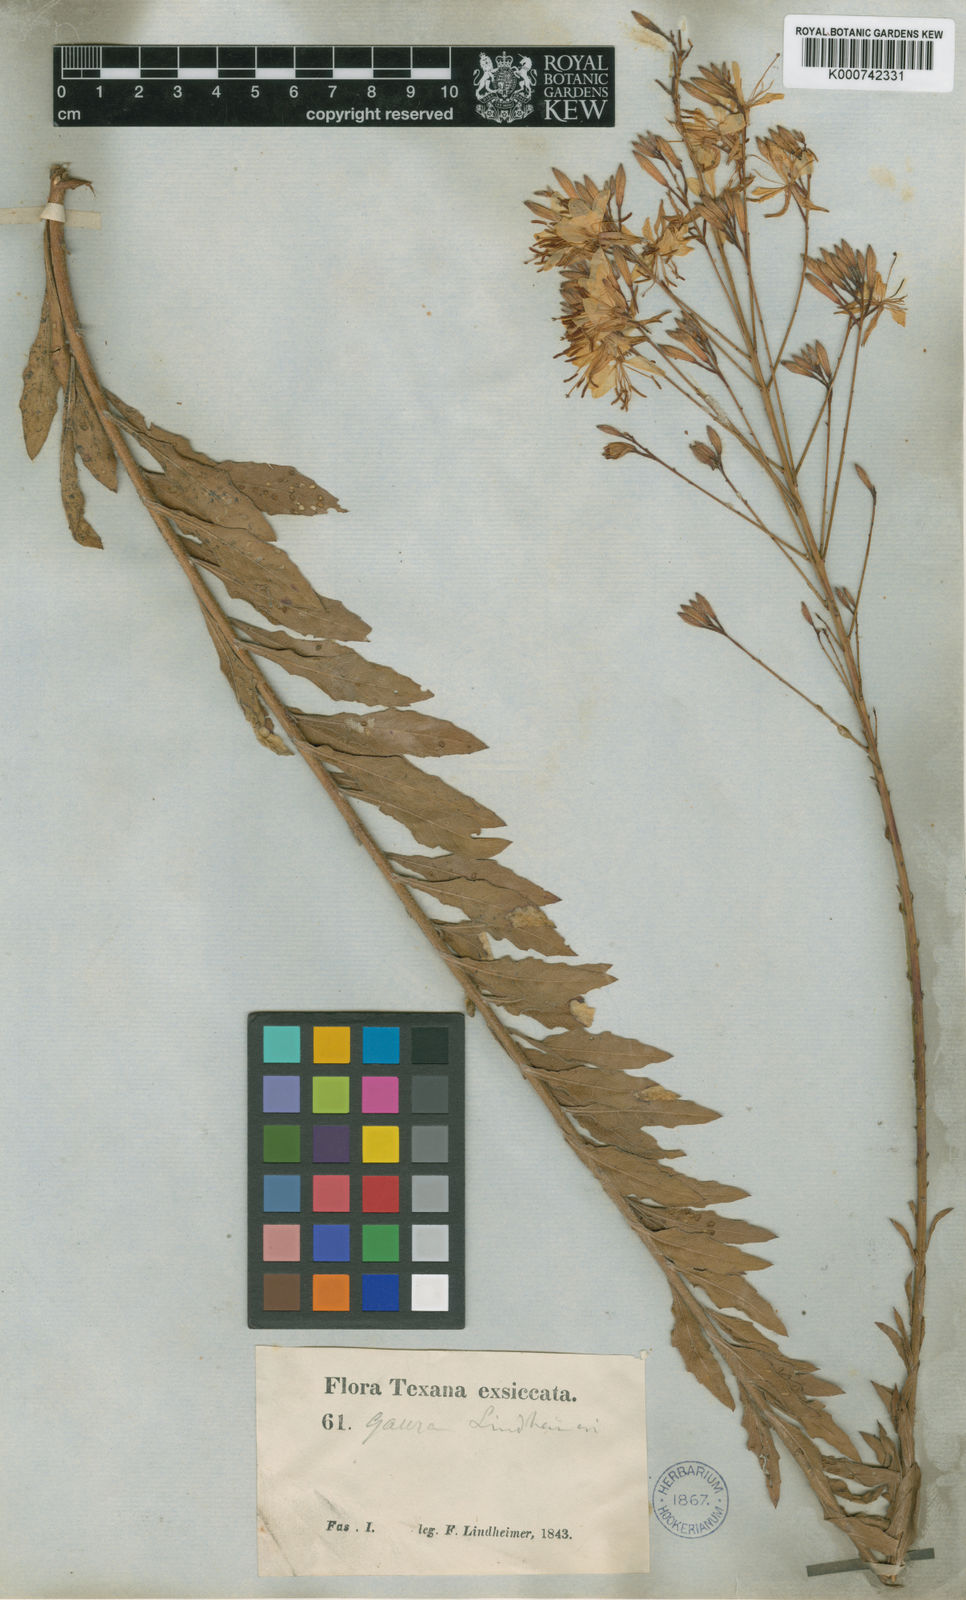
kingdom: Plantae
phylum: Tracheophyta
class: Magnoliopsida
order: Myrtales
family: Onagraceae
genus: Oenothera
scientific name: Oenothera lindheimeri
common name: Lindheimer's beeblossom
